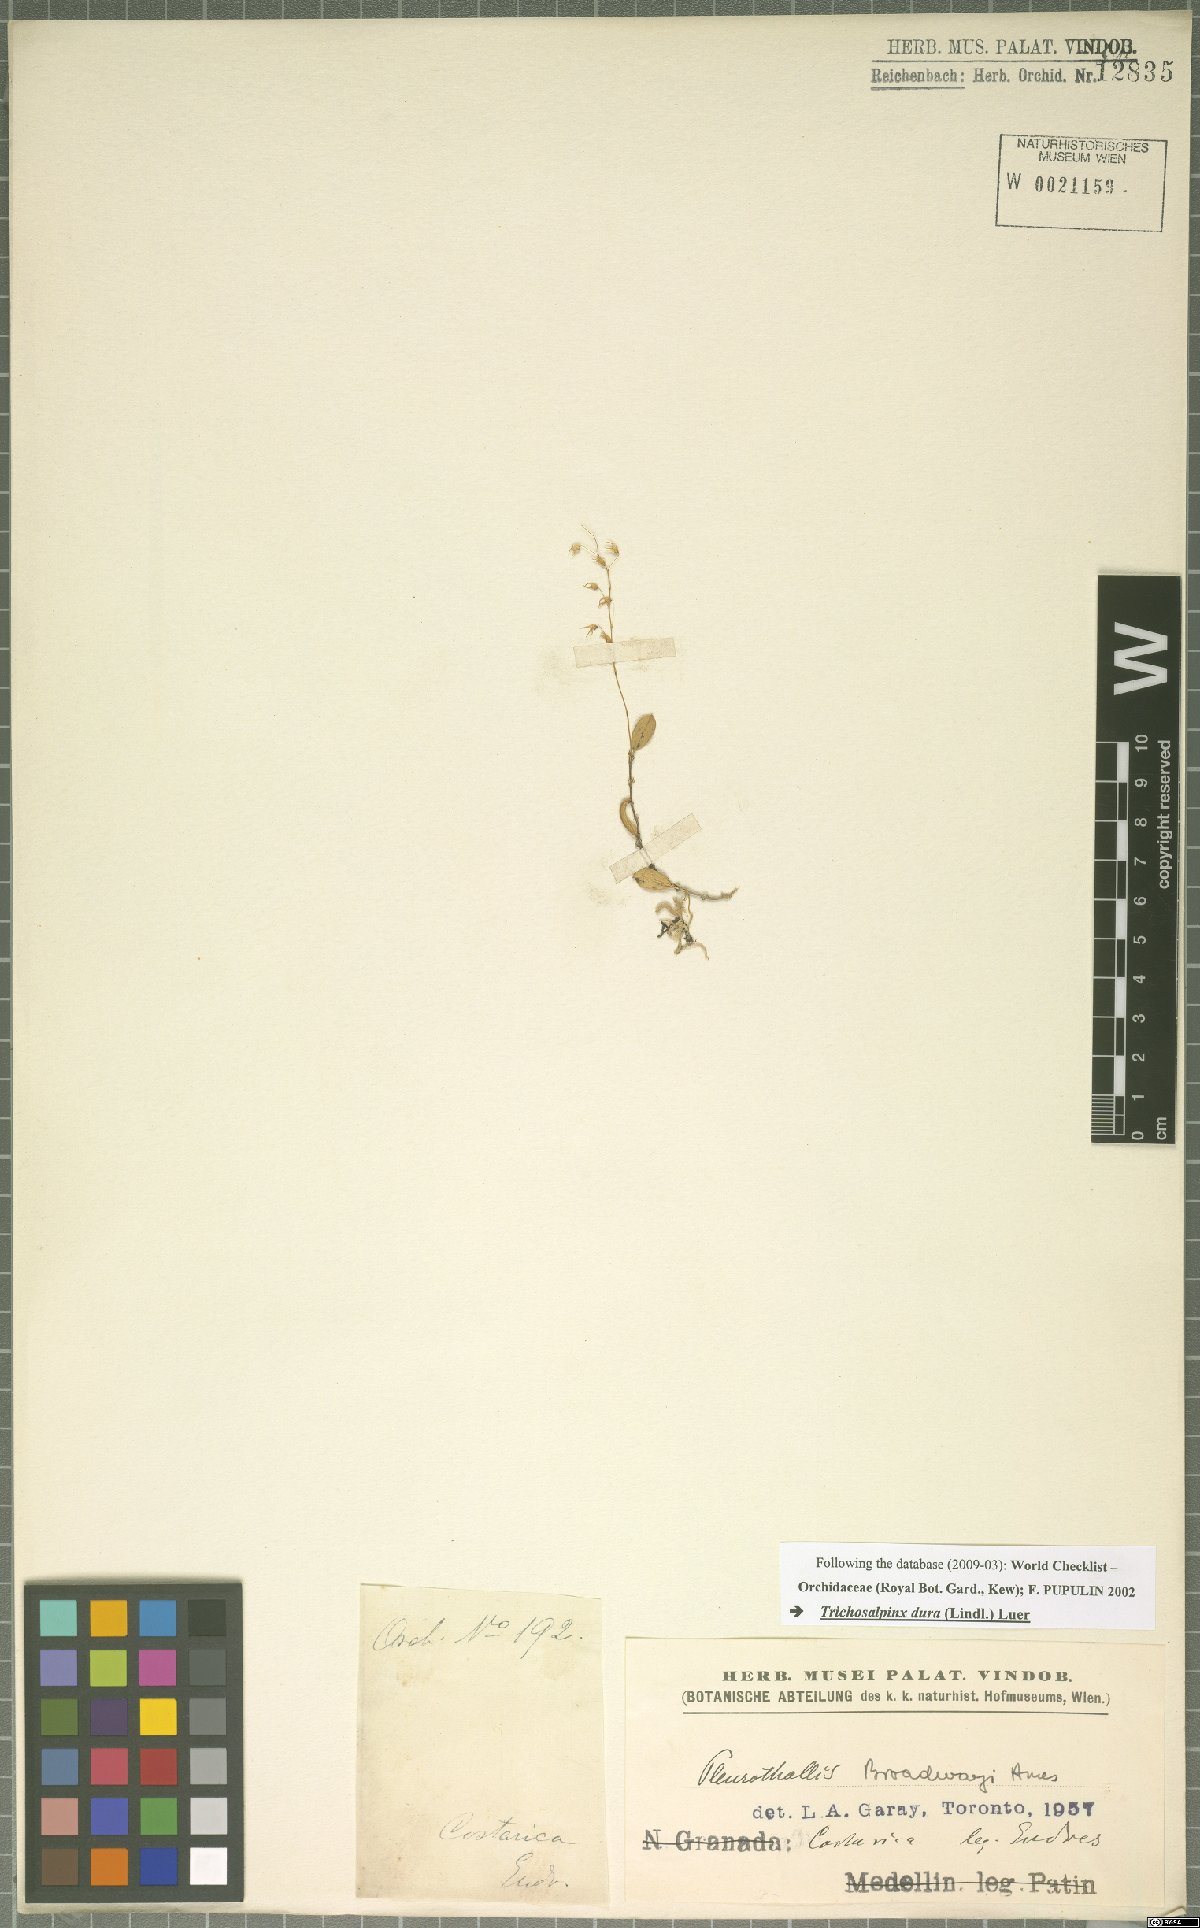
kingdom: Plantae
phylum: Tracheophyta
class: Liliopsida
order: Asparagales
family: Orchidaceae
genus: Trichosalpinx
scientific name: Trichosalpinx dura
